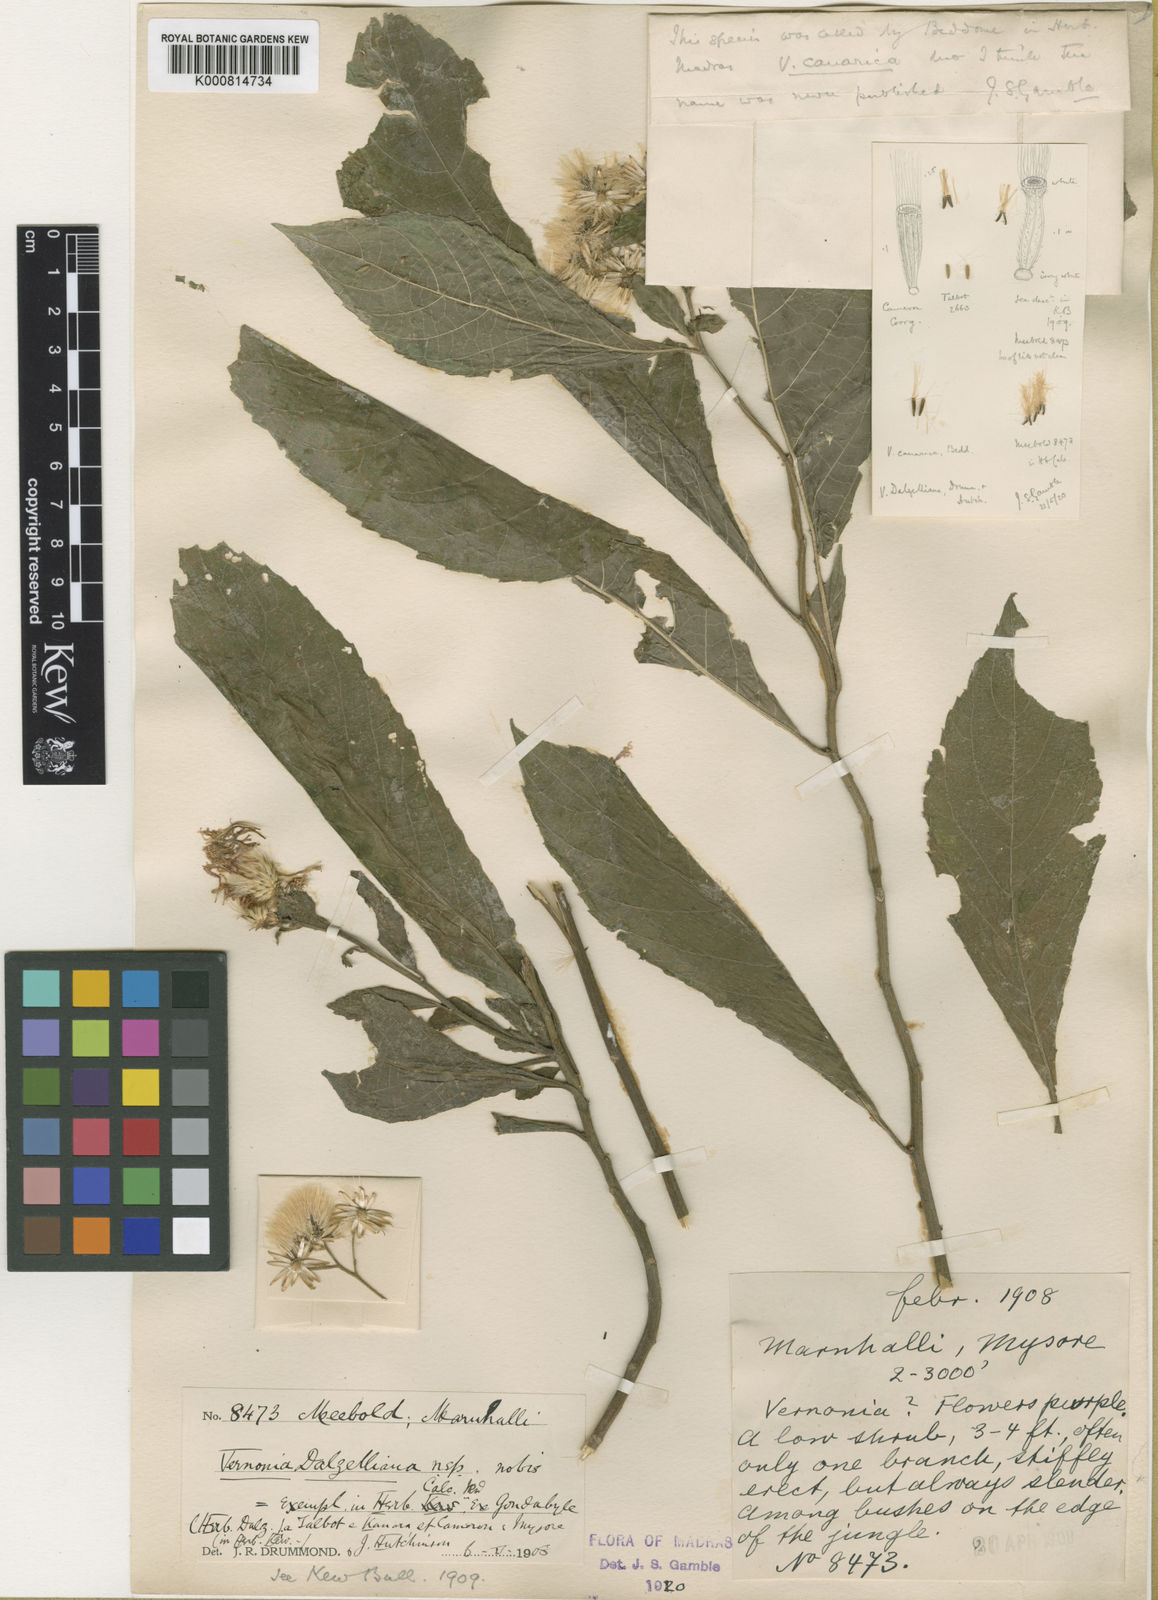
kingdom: Plantae
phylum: Tracheophyta
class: Magnoliopsida
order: Asterales
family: Asteraceae
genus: Acilepis
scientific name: Acilepis ornata
